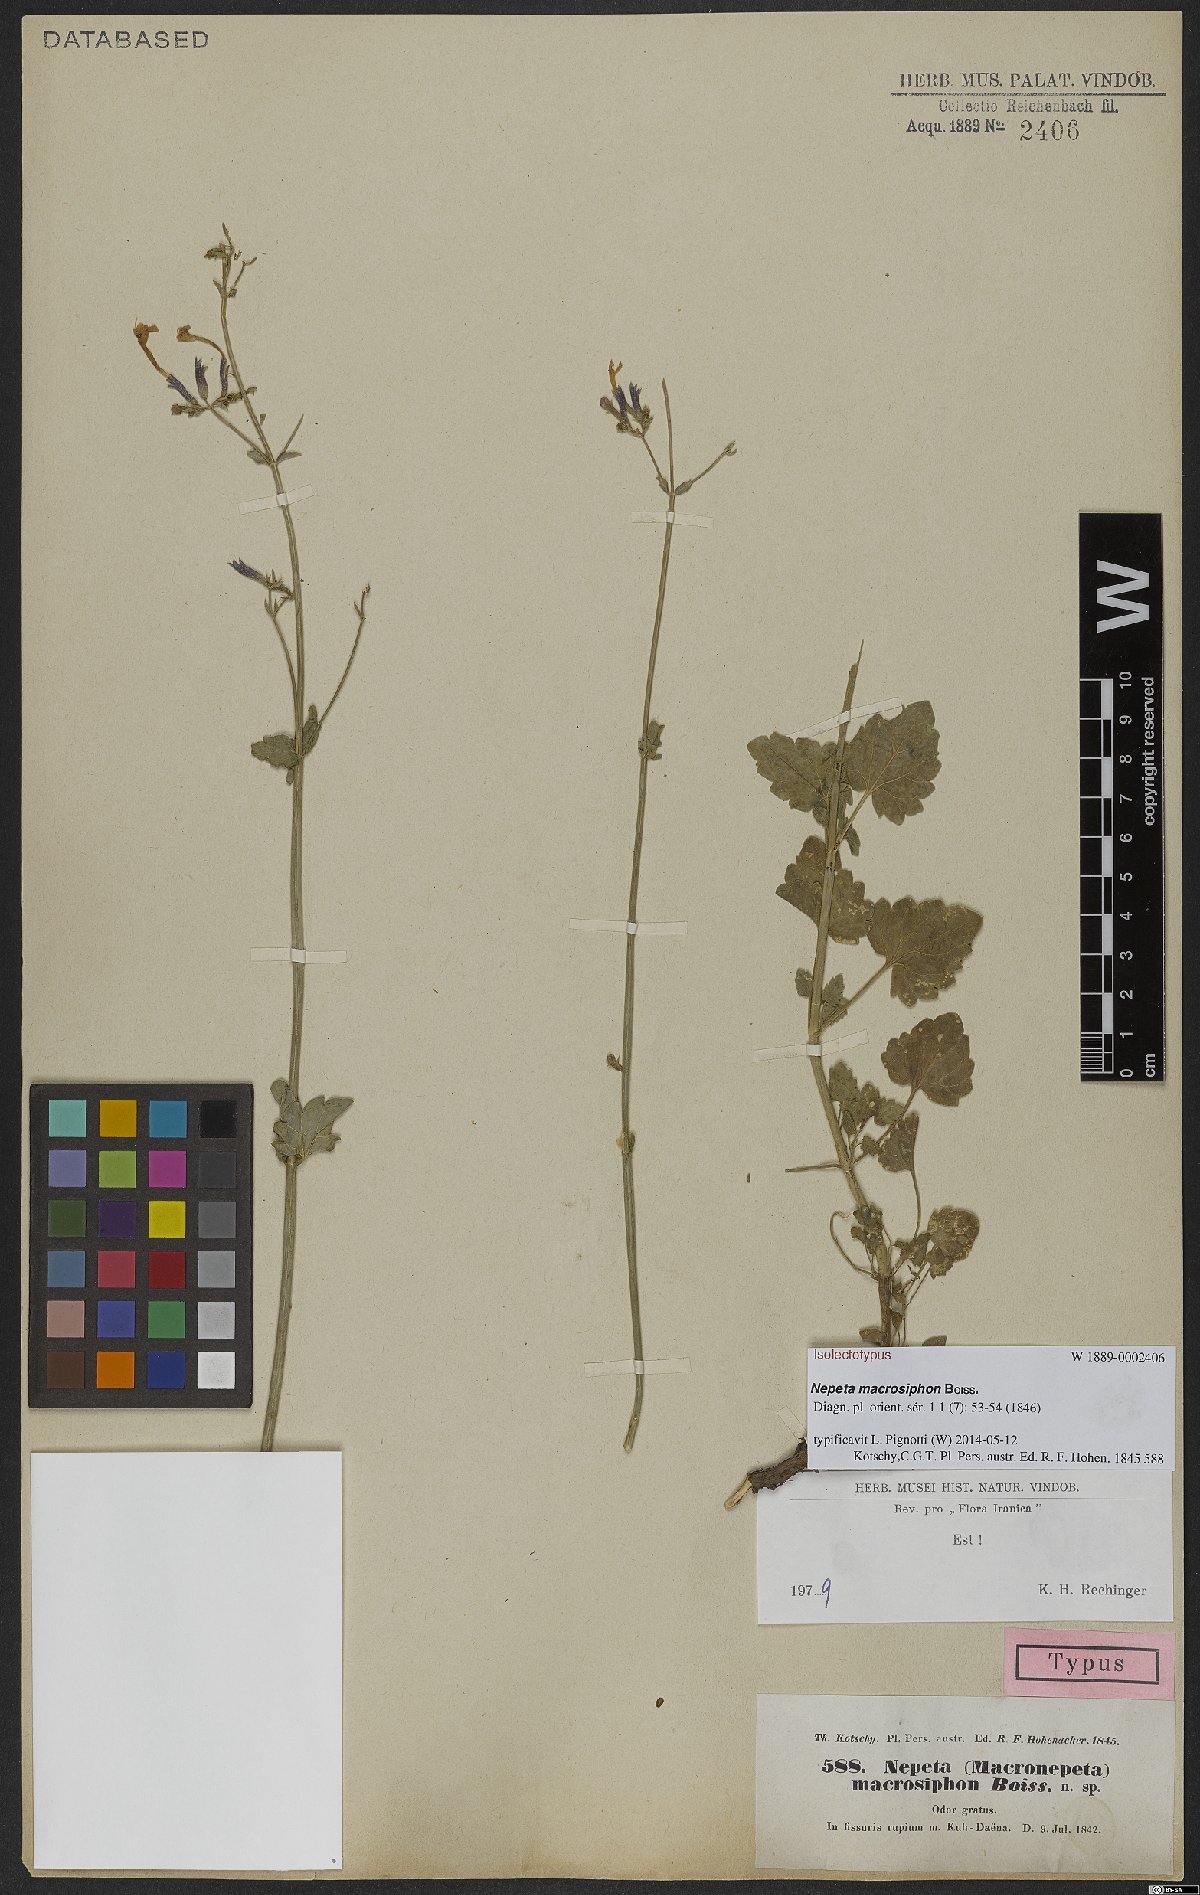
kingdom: Plantae
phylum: Tracheophyta
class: Magnoliopsida
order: Lamiales
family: Lamiaceae
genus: Nepeta
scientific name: Nepeta macrosiphon
